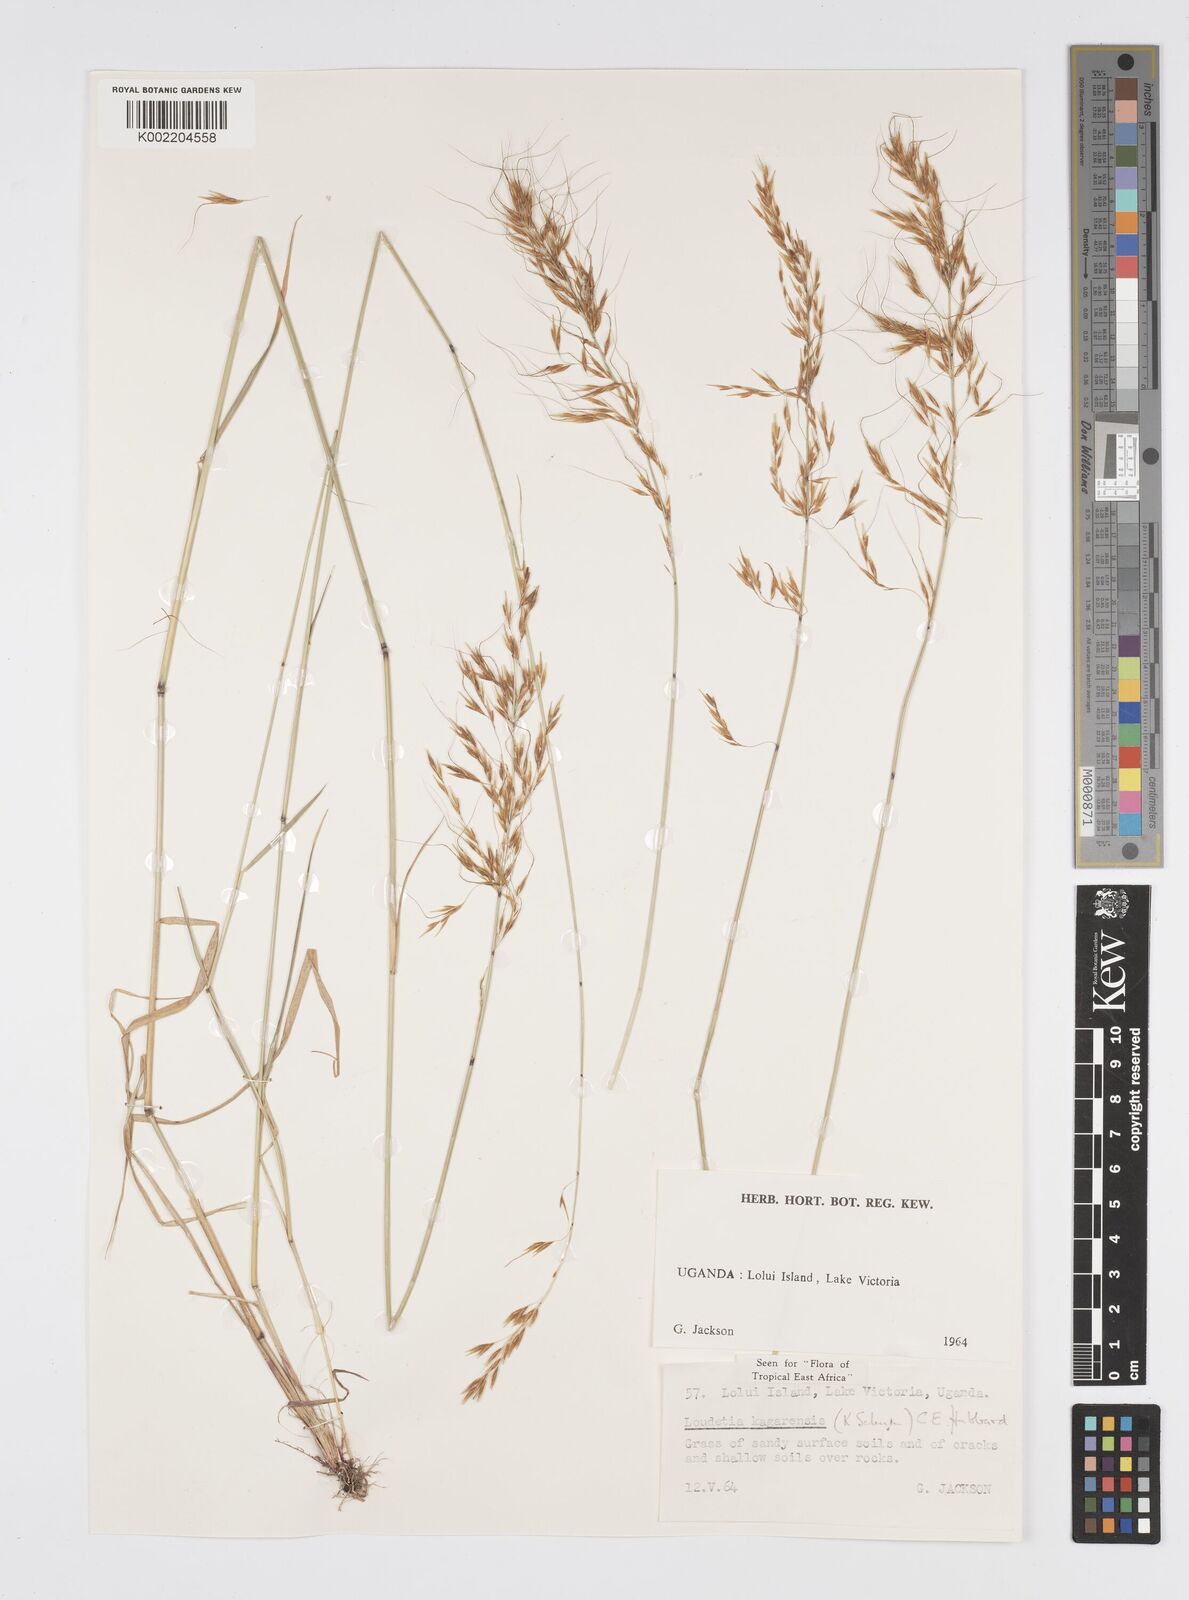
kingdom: Plantae
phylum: Tracheophyta
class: Liliopsida
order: Poales
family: Poaceae
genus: Loudetia
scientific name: Loudetia kagerensis
